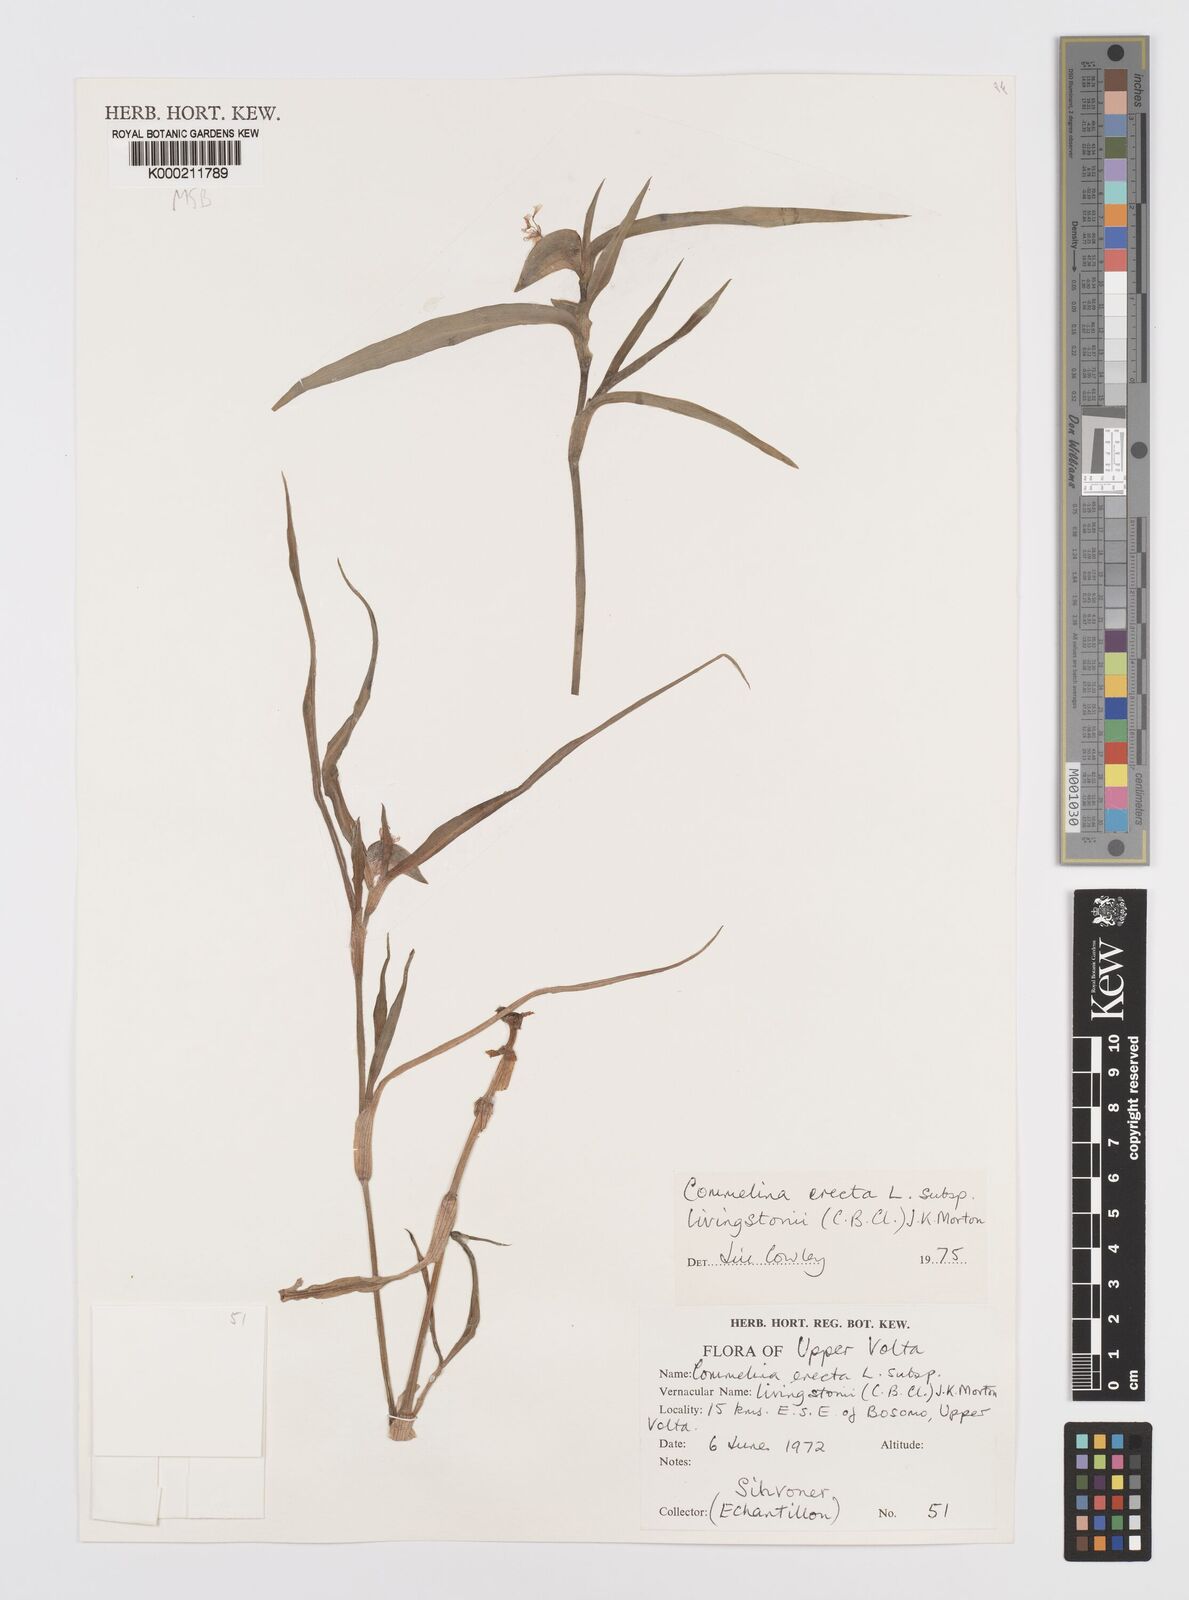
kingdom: Plantae
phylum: Tracheophyta
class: Liliopsida
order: Commelinales
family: Commelinaceae
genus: Commelina
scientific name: Commelina erecta
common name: Blousel blommetjie
